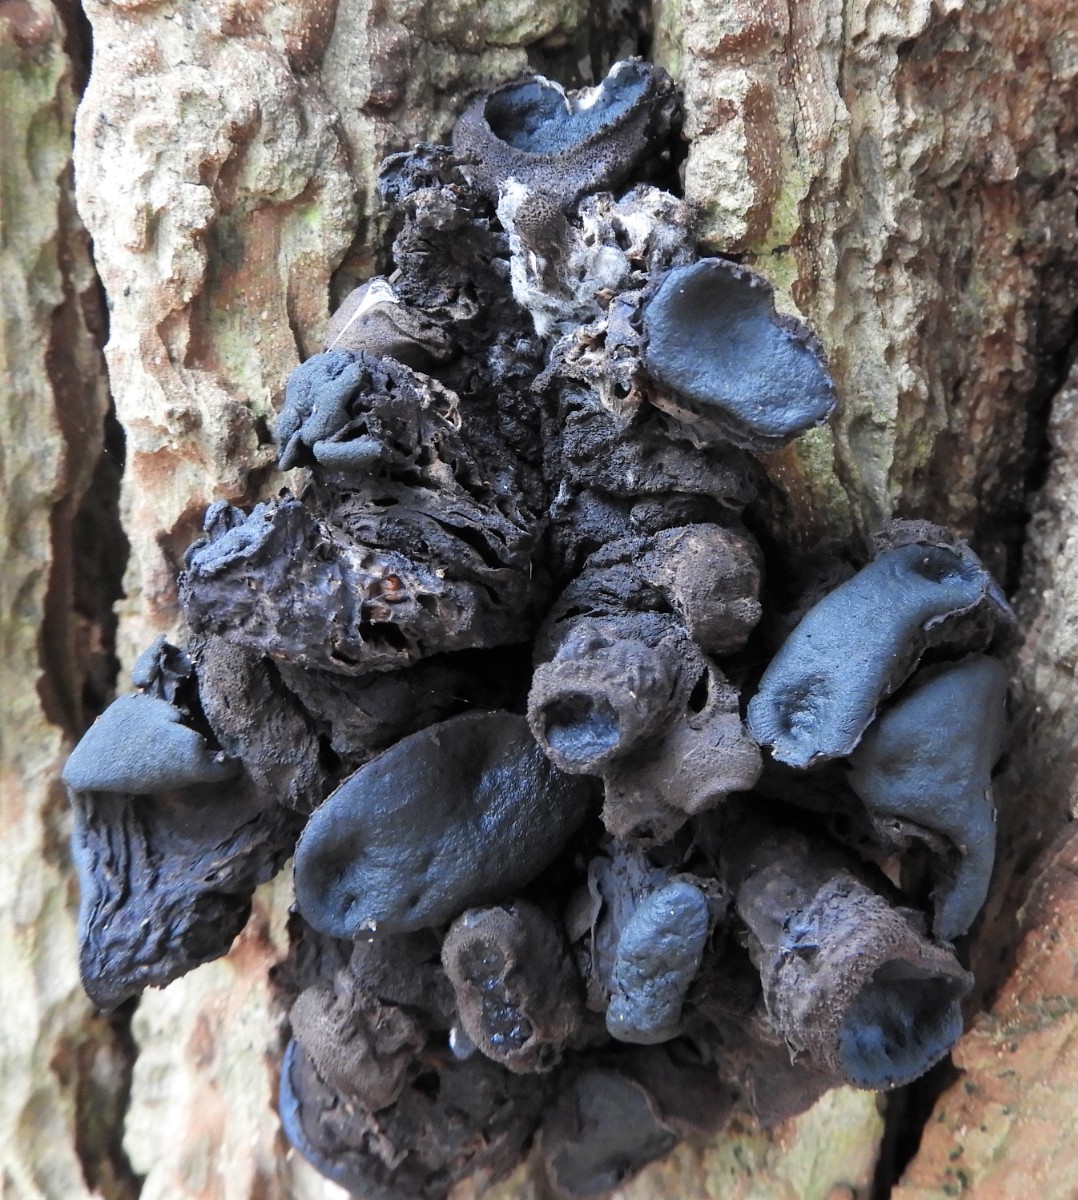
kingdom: Fungi
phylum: Ascomycota
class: Leotiomycetes
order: Phacidiales
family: Phacidiaceae
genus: Bulgaria
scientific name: Bulgaria inquinans
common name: afsmittende topsvamp
